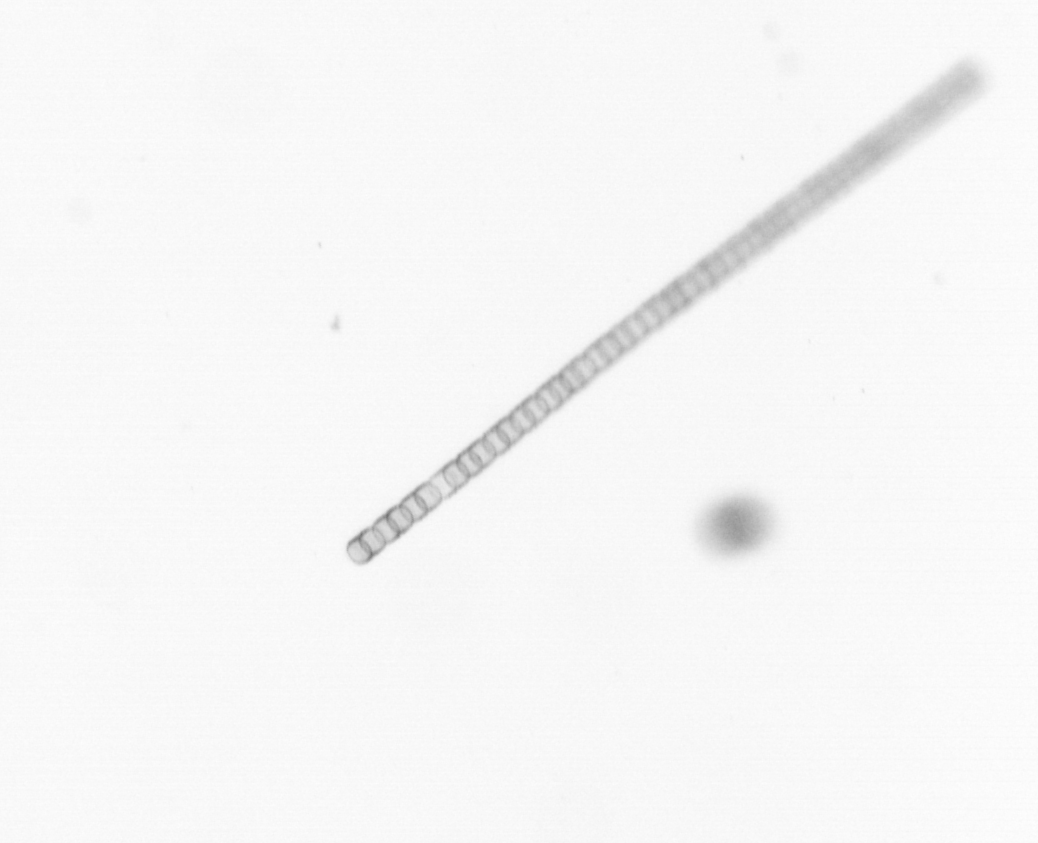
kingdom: Chromista
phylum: Ochrophyta
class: Bacillariophyceae
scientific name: Bacillariophyceae
